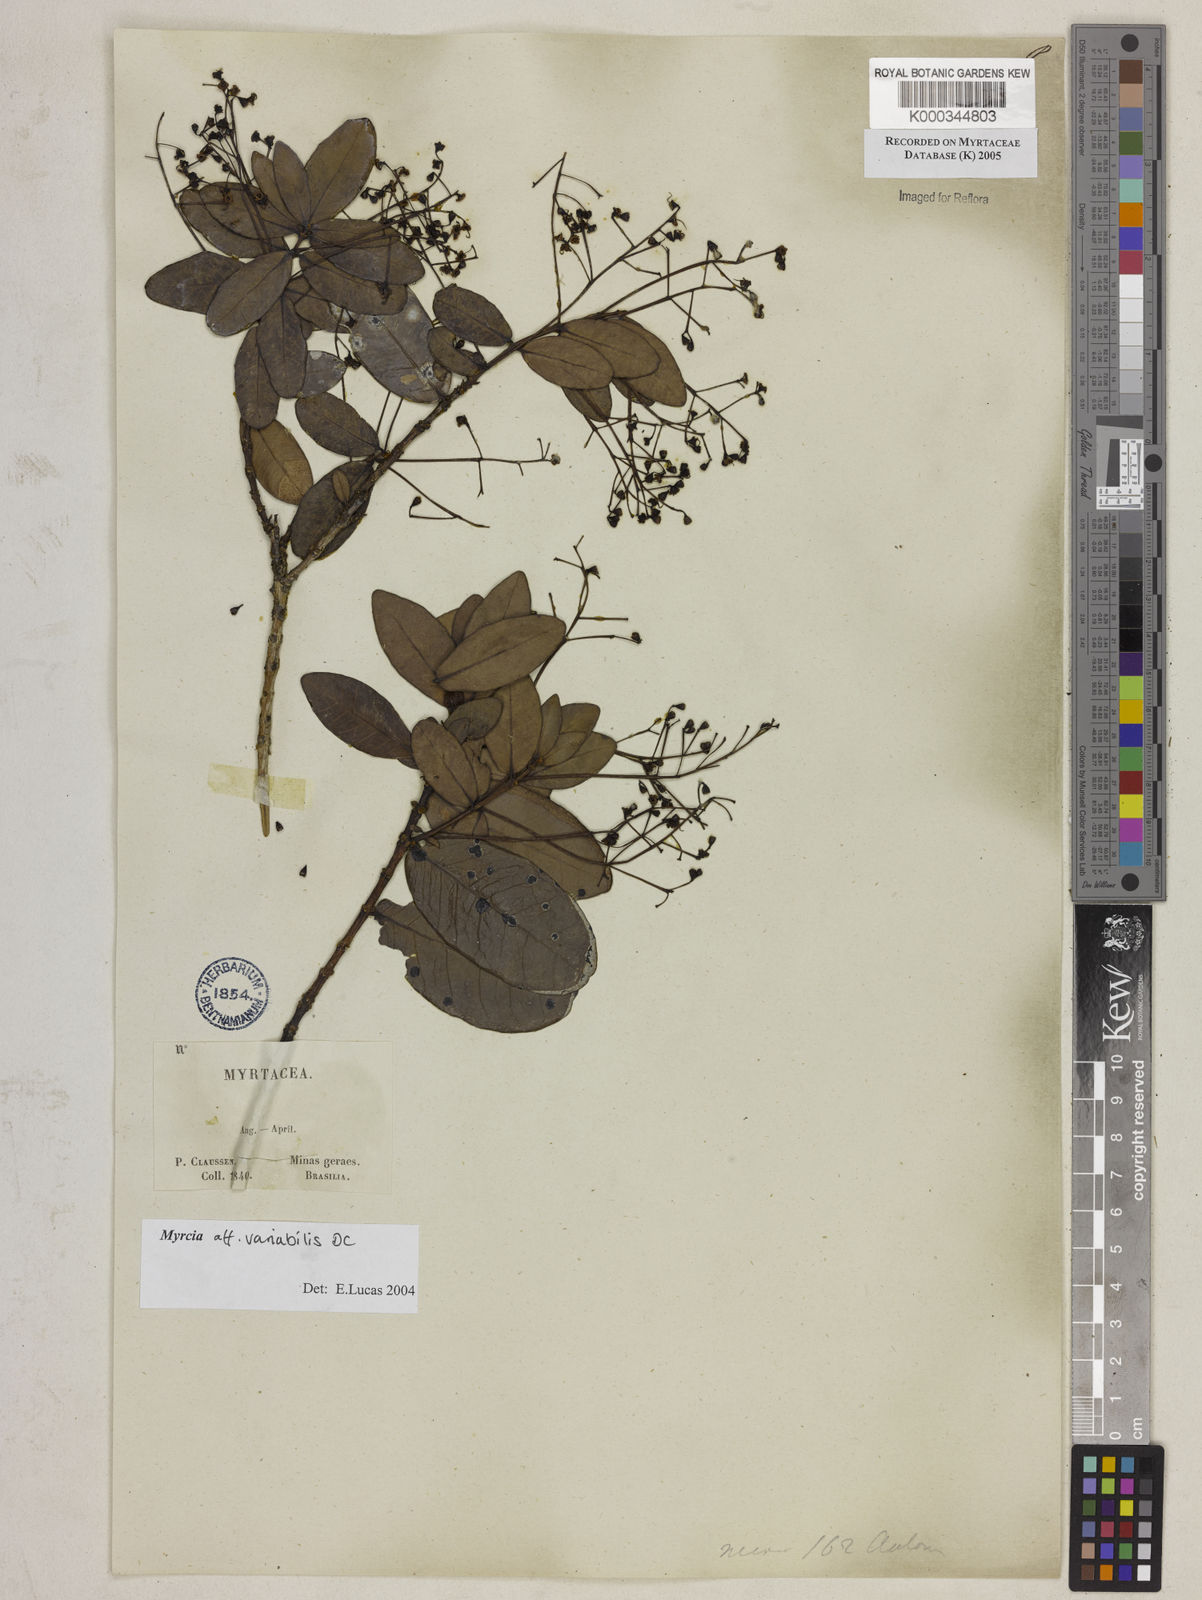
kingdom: Plantae
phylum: Tracheophyta
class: Magnoliopsida
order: Myrtales
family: Myrtaceae
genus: Myrcia
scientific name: Myrcia amethystina
